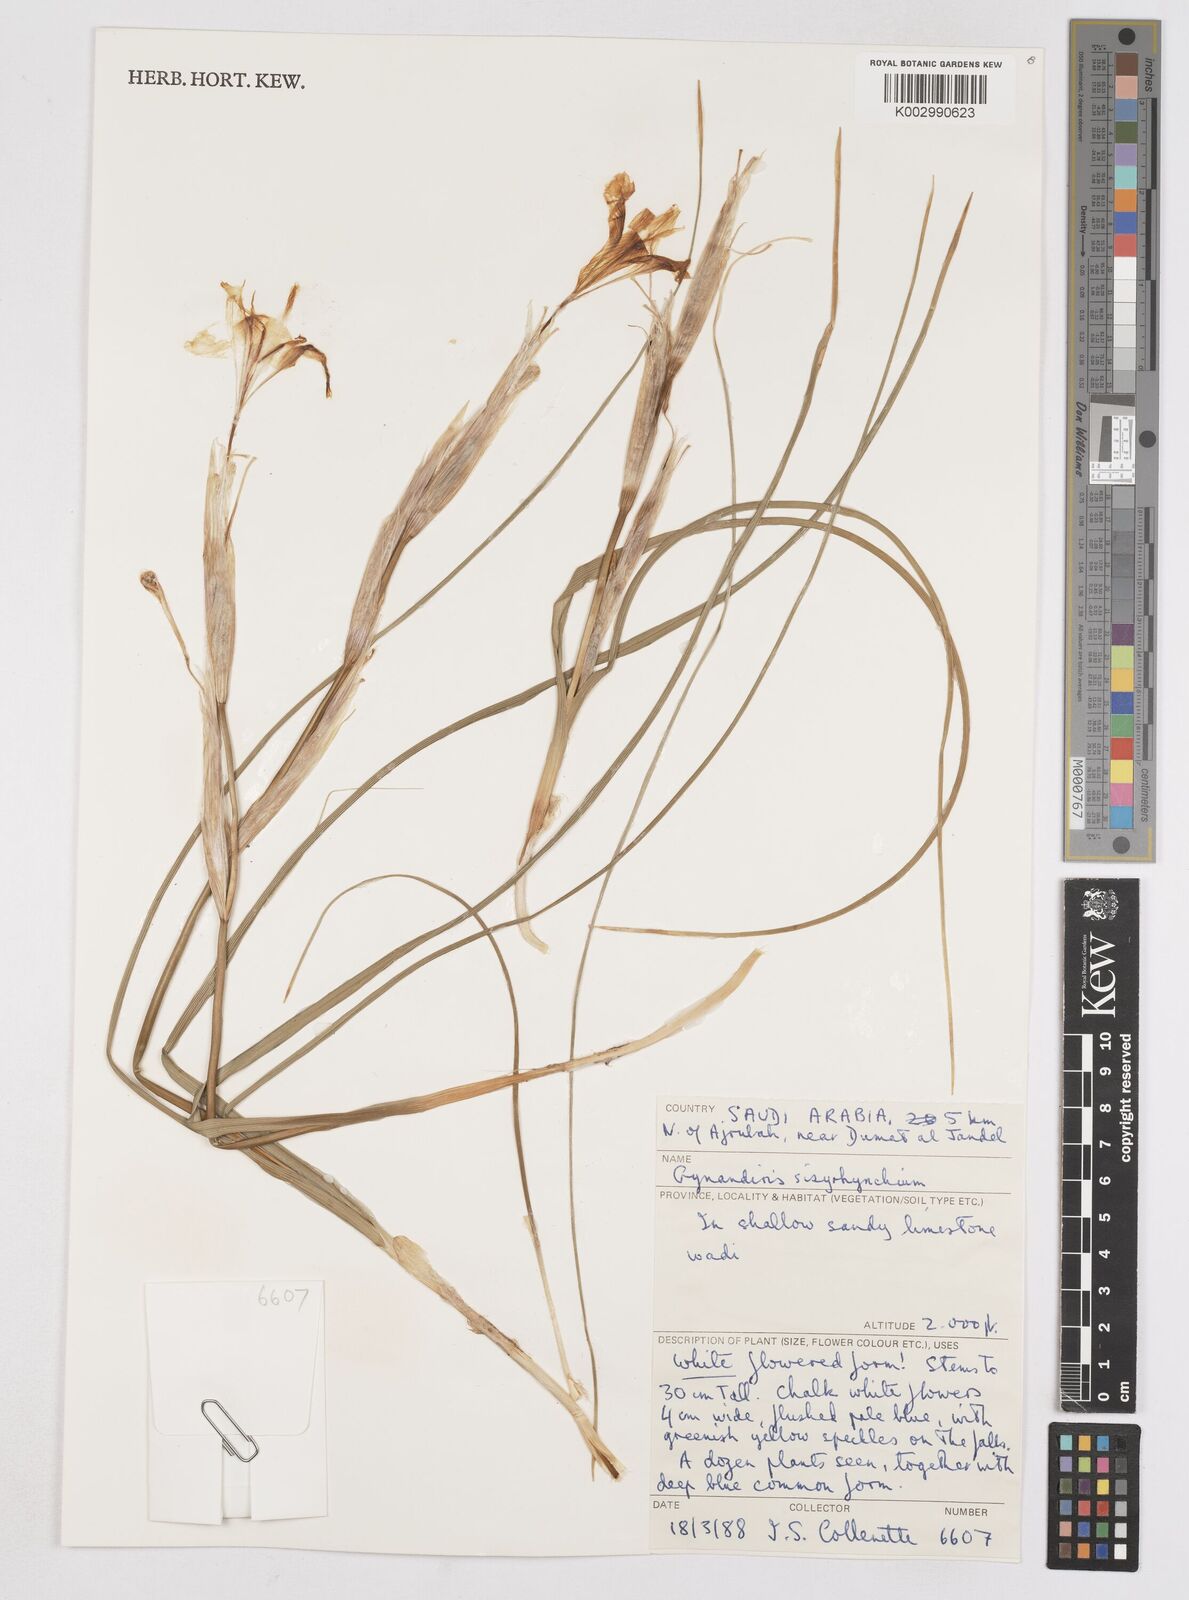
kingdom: Plantae
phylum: Tracheophyta
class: Liliopsida
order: Asparagales
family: Iridaceae
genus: Moraea
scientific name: Moraea sisyrinchium
